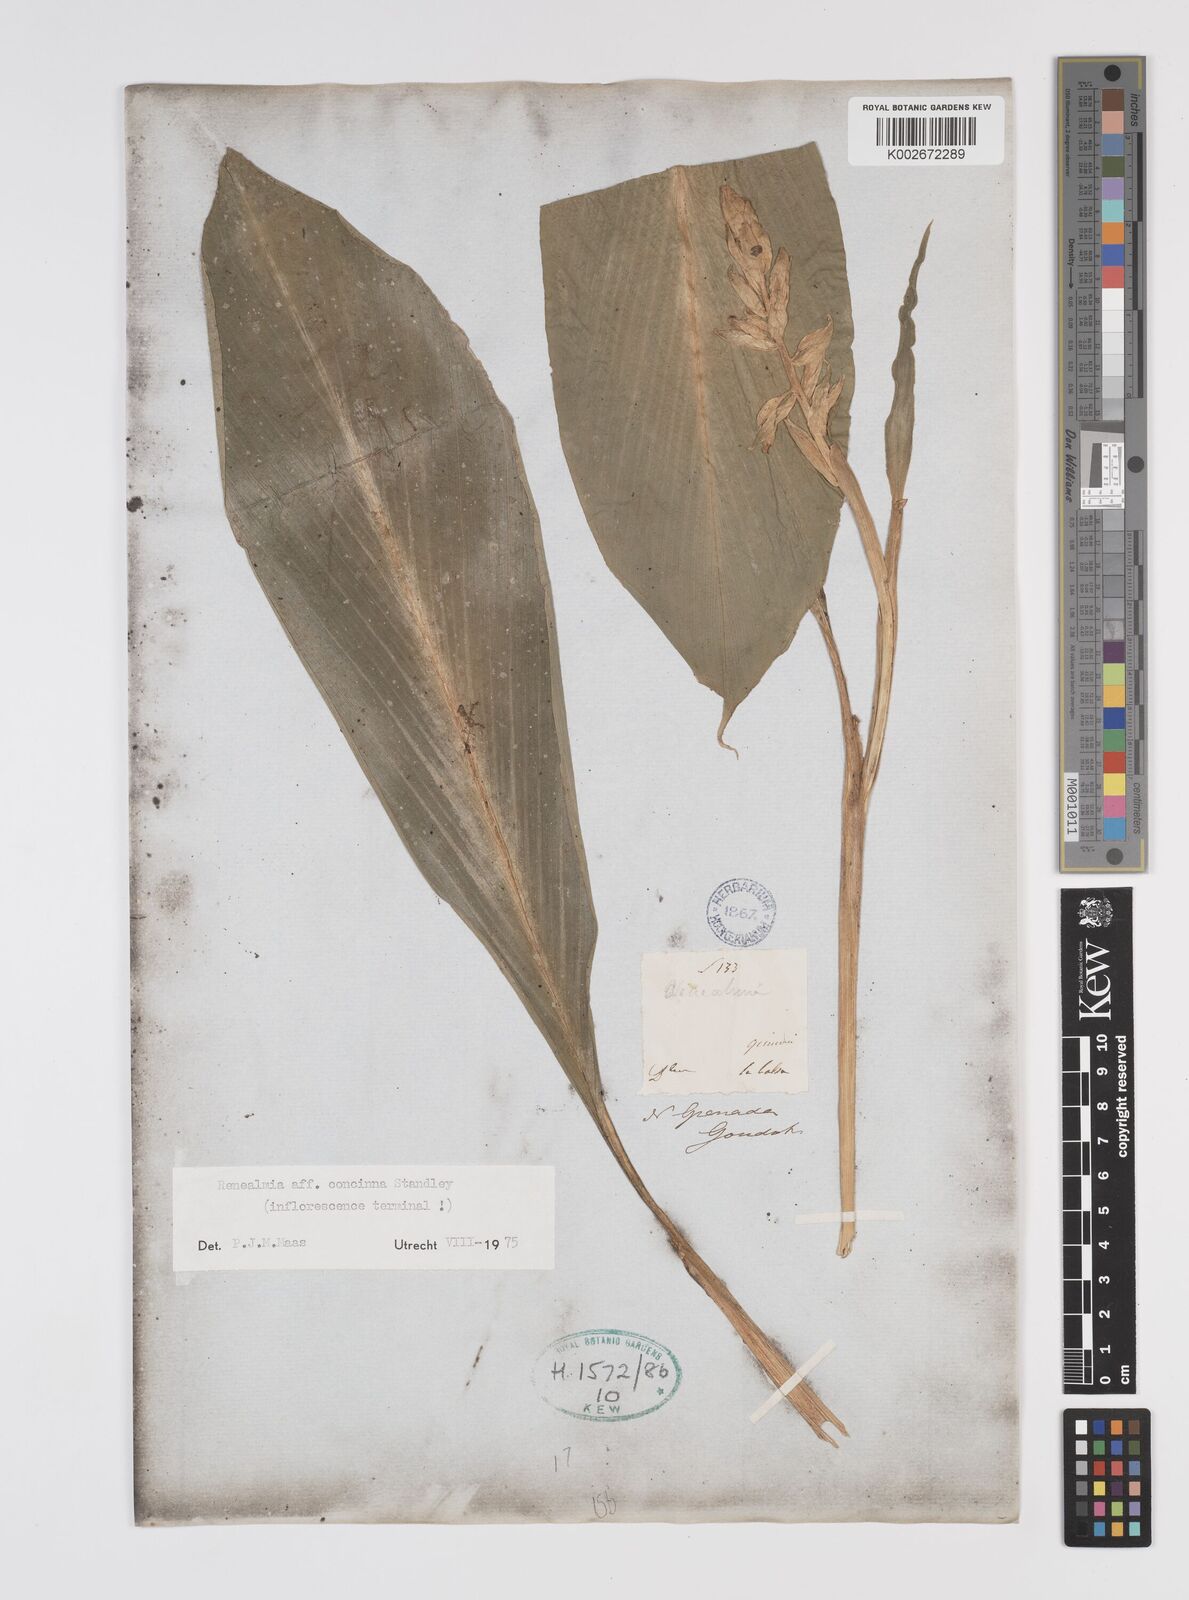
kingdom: Plantae
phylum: Tracheophyta
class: Liliopsida
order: Zingiberales
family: Zingiberaceae
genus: Renealmia
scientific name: Renealmia concinna
